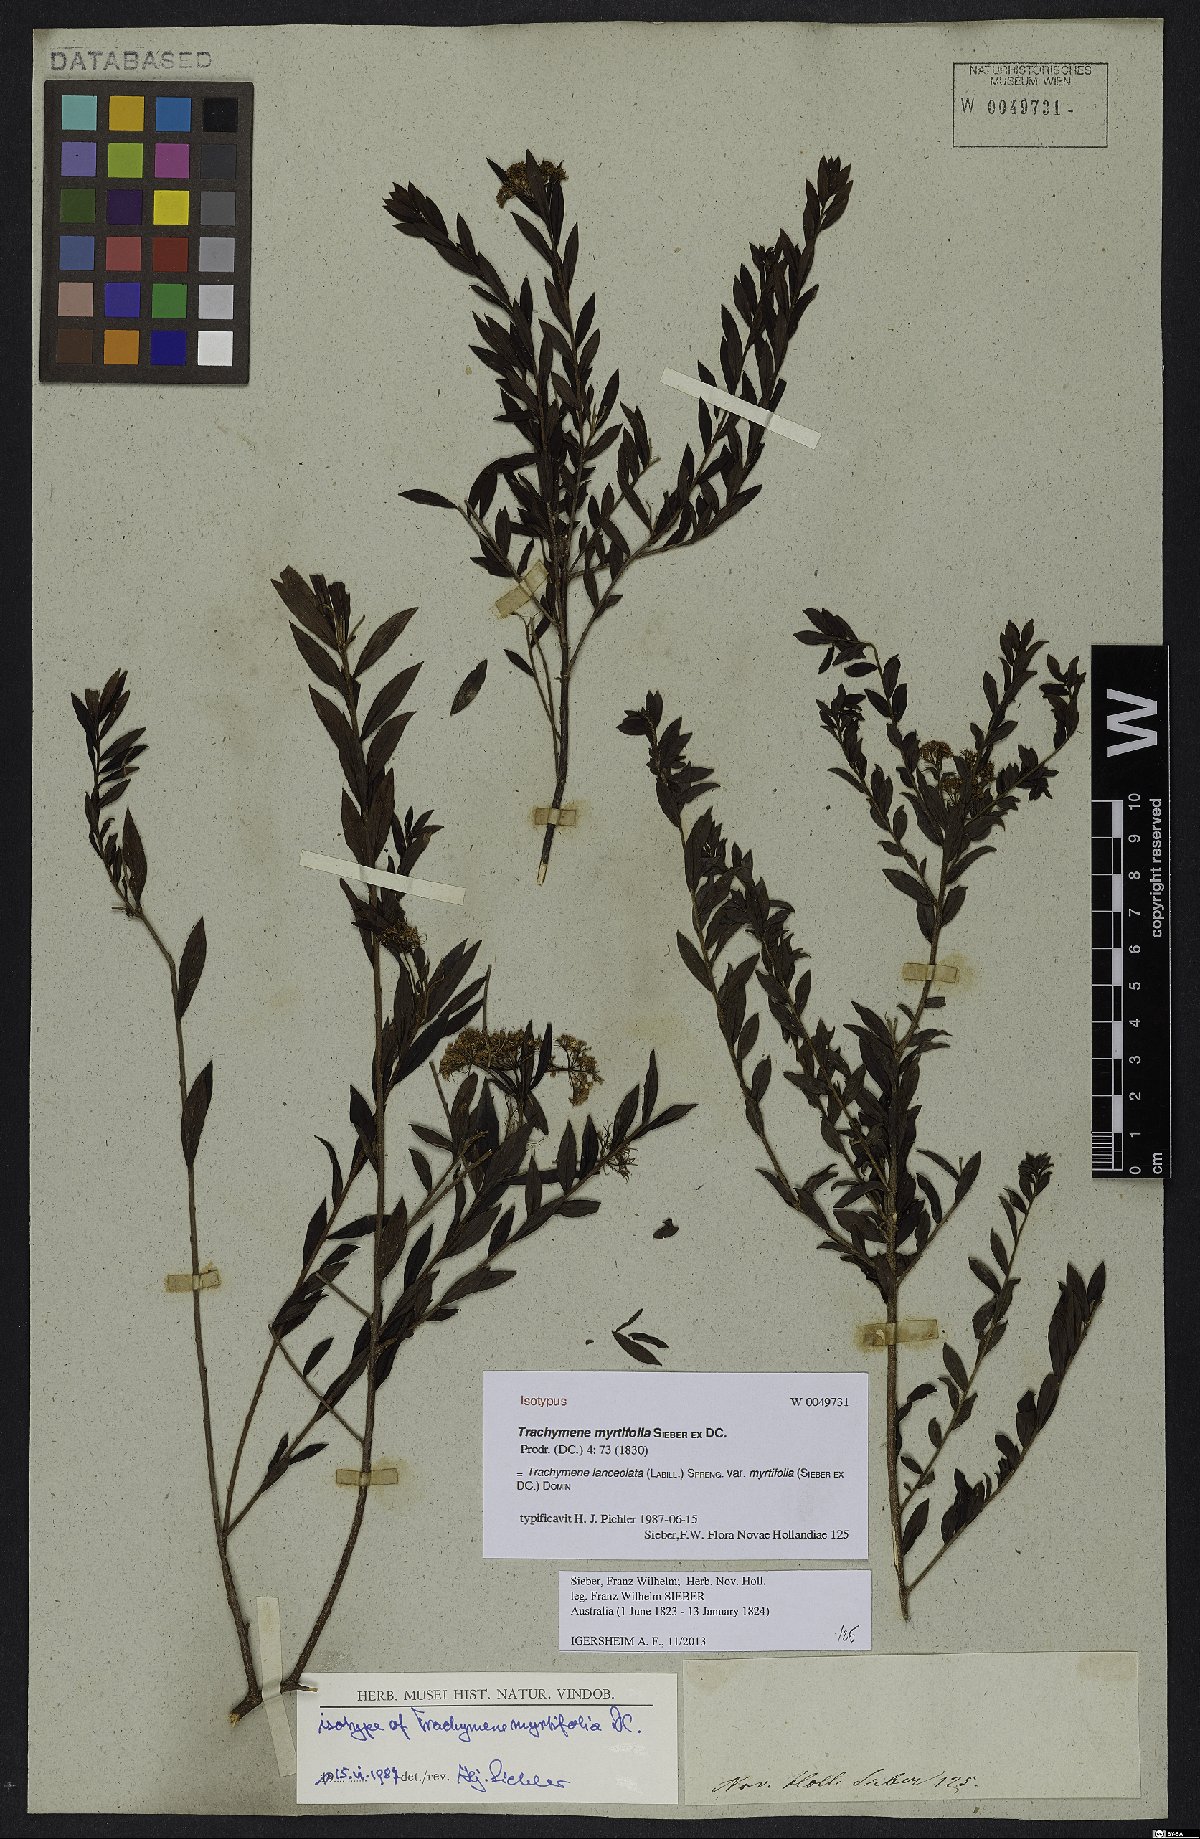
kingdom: Plantae
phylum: Tracheophyta
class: Magnoliopsida
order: Apiales
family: Apiaceae
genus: Platysace
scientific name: Platysace lanceolata
